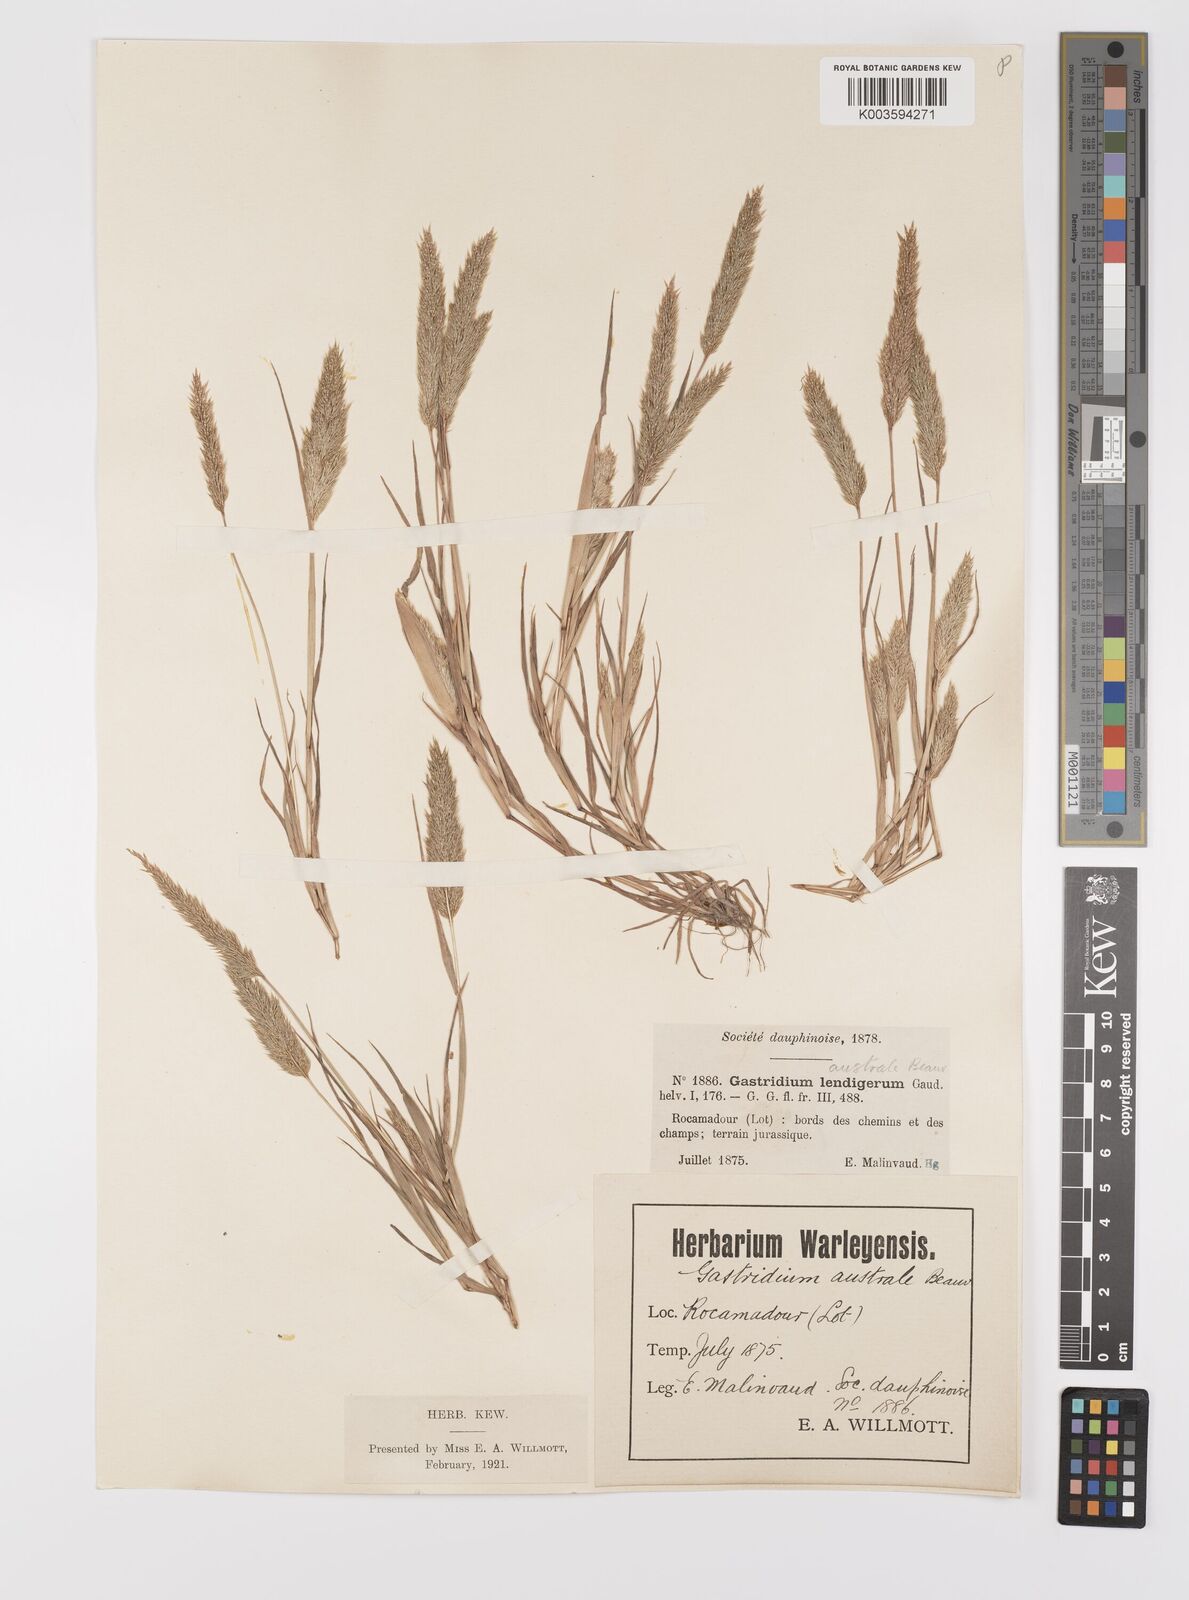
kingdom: Plantae
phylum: Tracheophyta
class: Liliopsida
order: Poales
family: Poaceae
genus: Gastridium
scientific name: Gastridium ventricosum
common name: Nit-grass
